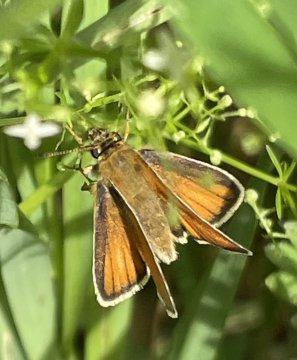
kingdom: Animalia
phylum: Arthropoda
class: Insecta
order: Lepidoptera
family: Hesperiidae
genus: Thymelicus
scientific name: Thymelicus lineola
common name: European Skipper
